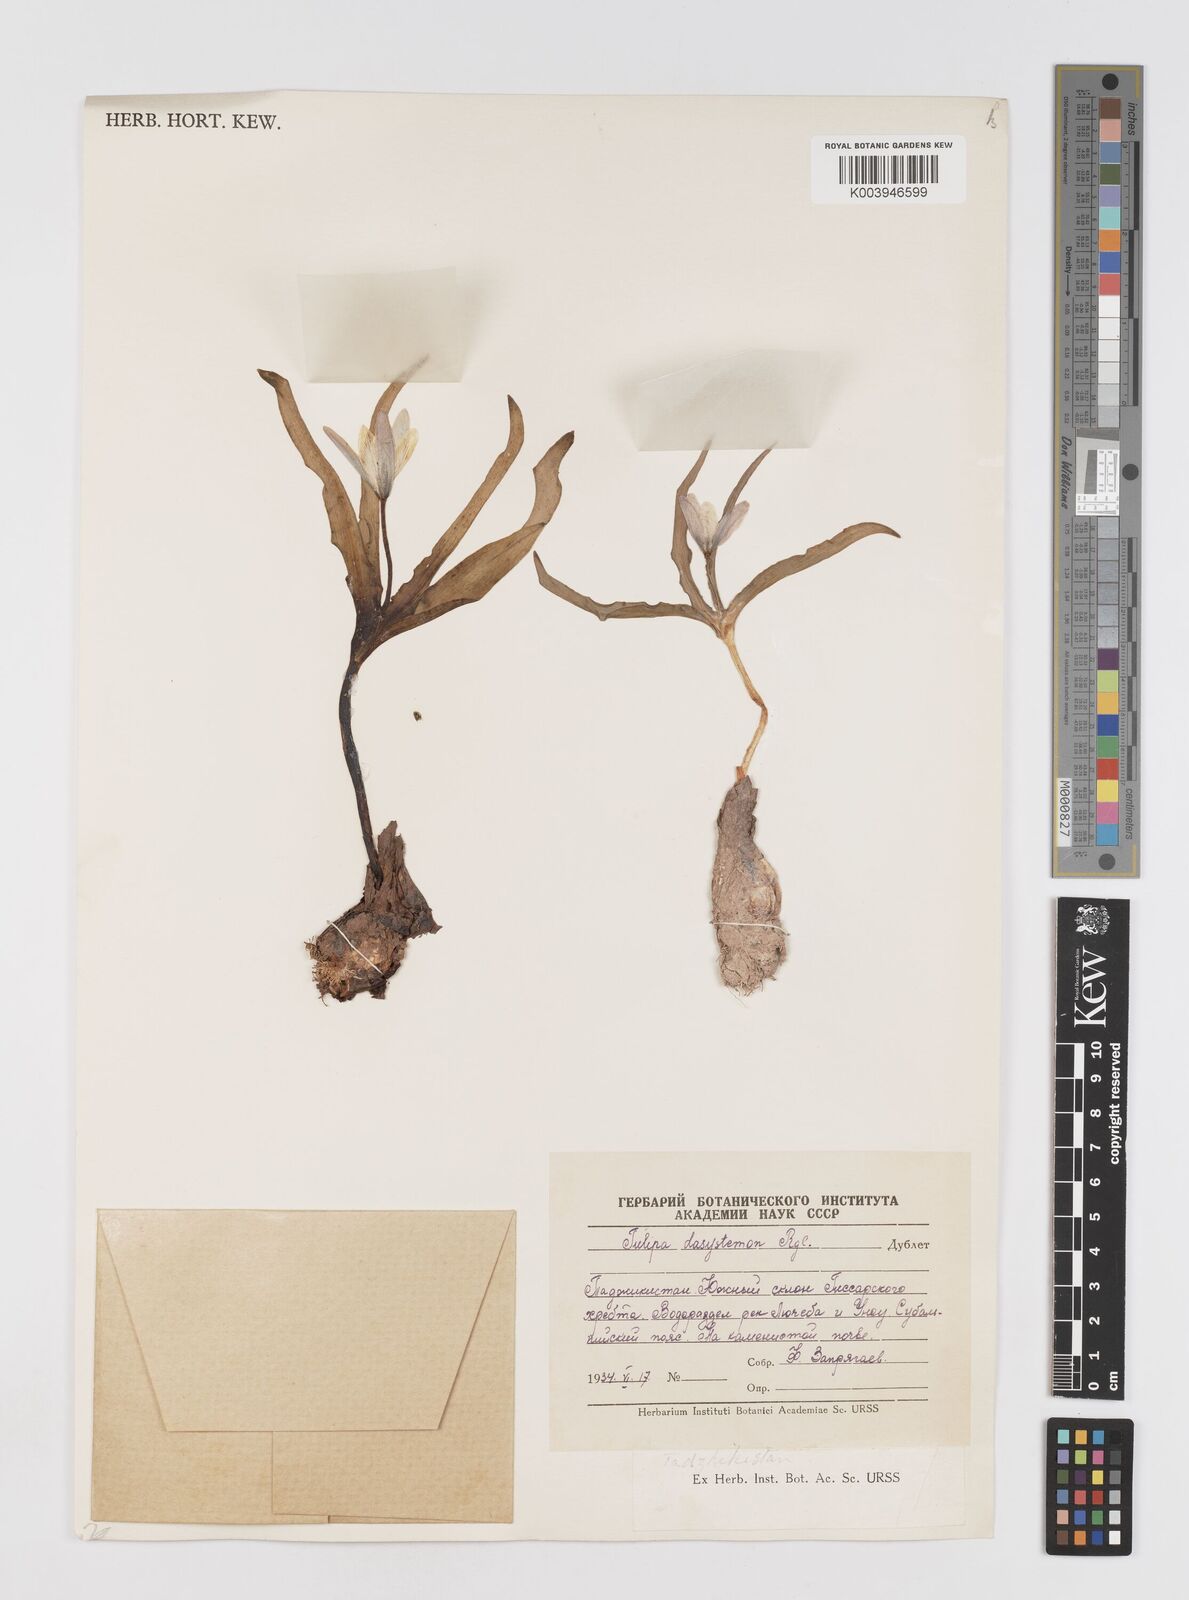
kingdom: Plantae
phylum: Tracheophyta
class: Liliopsida
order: Liliales
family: Liliaceae
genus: Tulipa
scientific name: Tulipa urumiensis
